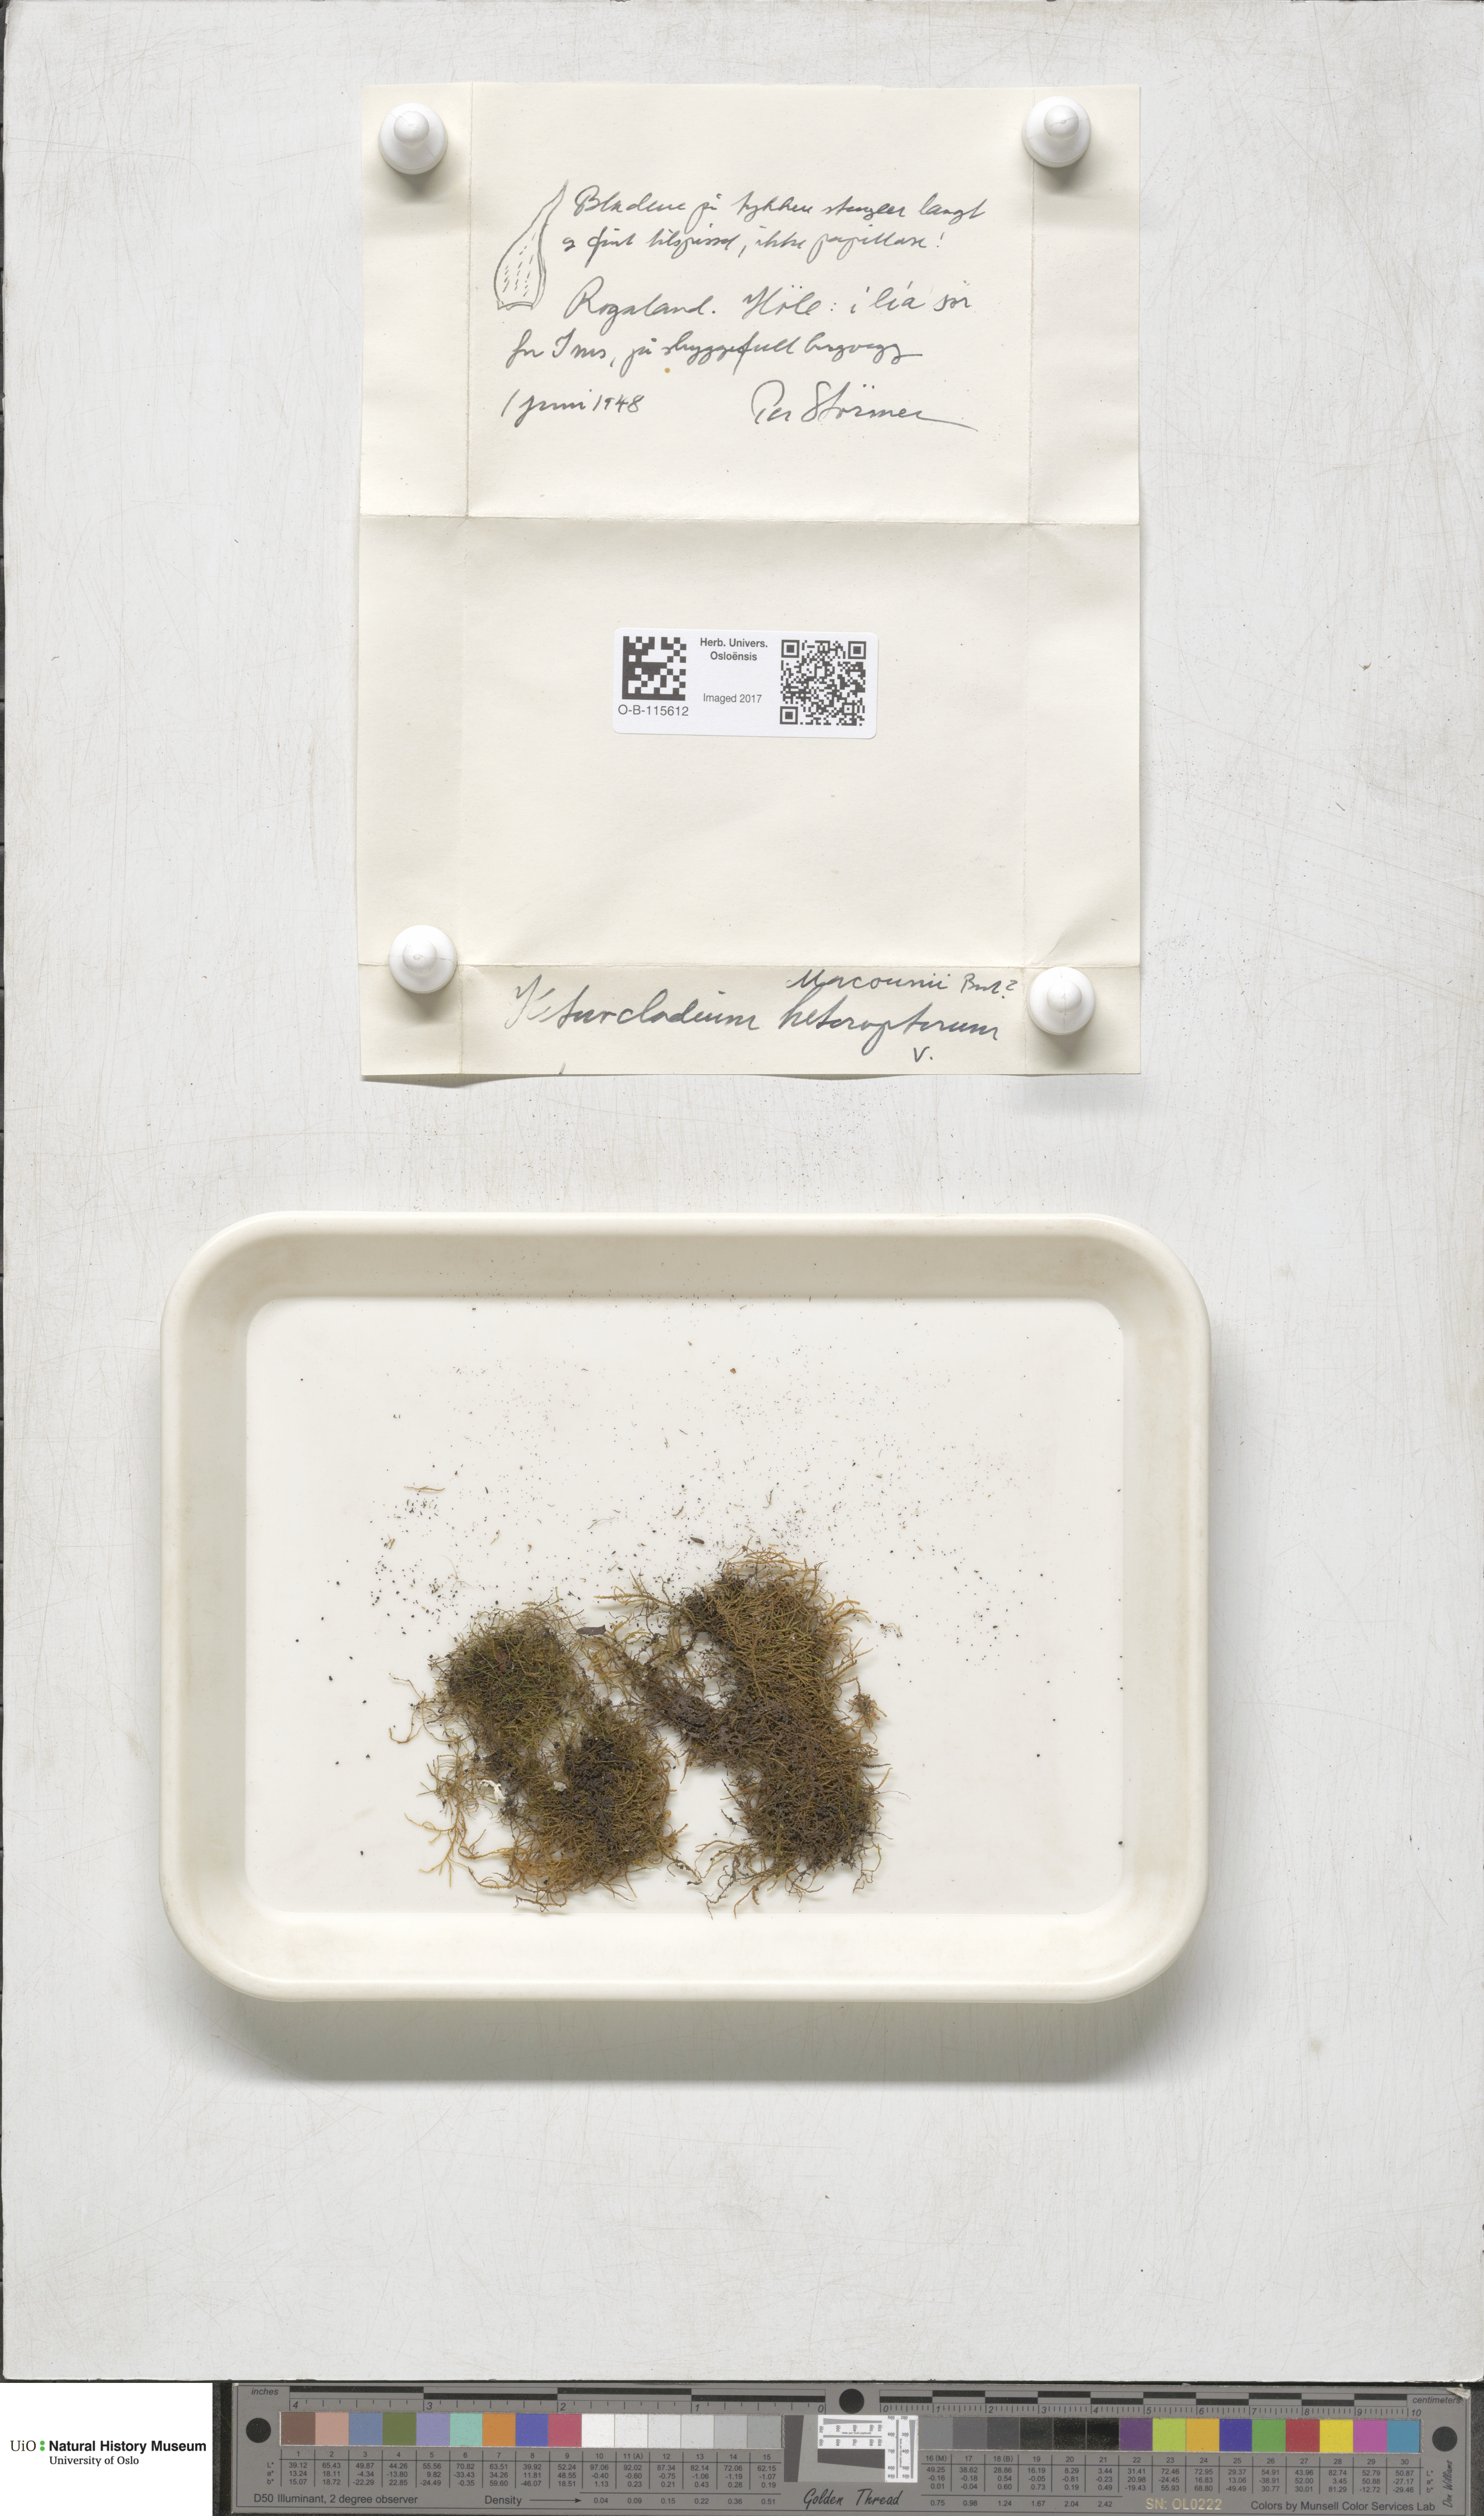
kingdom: Plantae
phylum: Bryophyta
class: Bryopsida
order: Hypnales
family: Lembophyllaceae
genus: Heterocladium
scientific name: Heterocladium heteropterum
